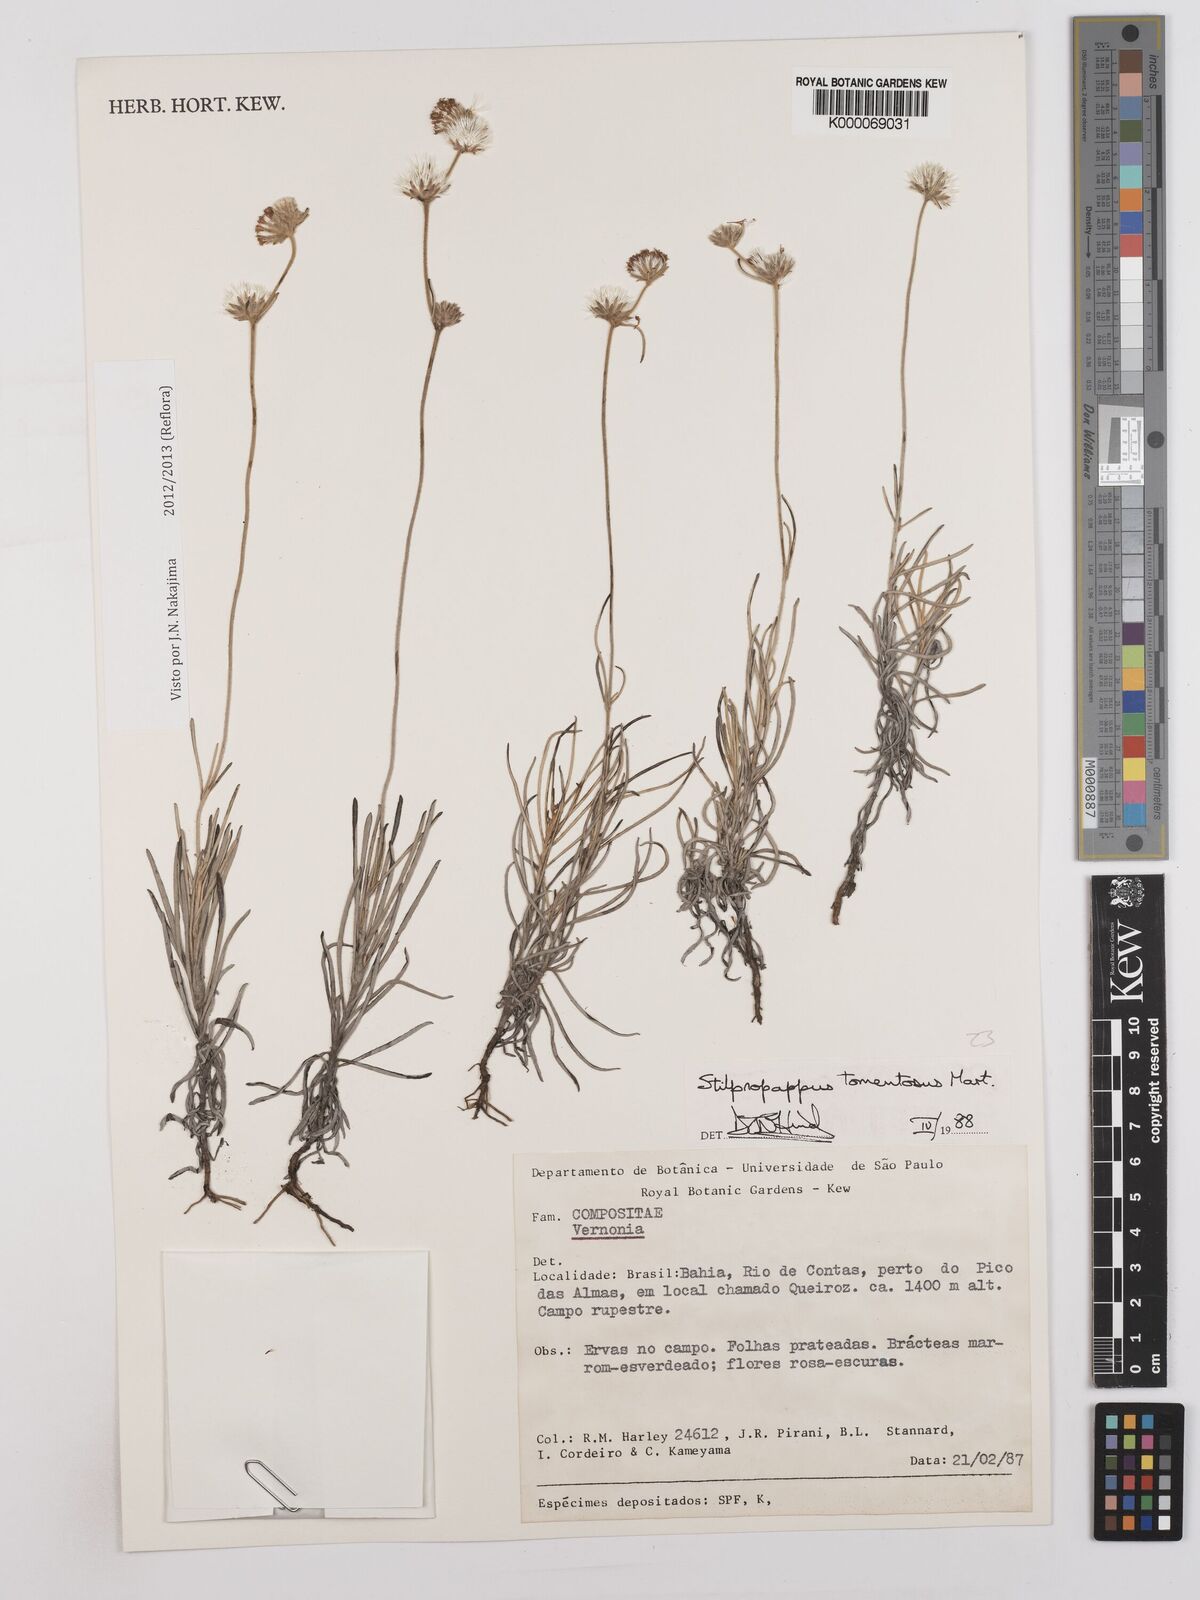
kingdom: Plantae
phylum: Tracheophyta
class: Magnoliopsida
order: Asterales
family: Asteraceae
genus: Stilpnopappus
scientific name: Stilpnopappus tomentosus
